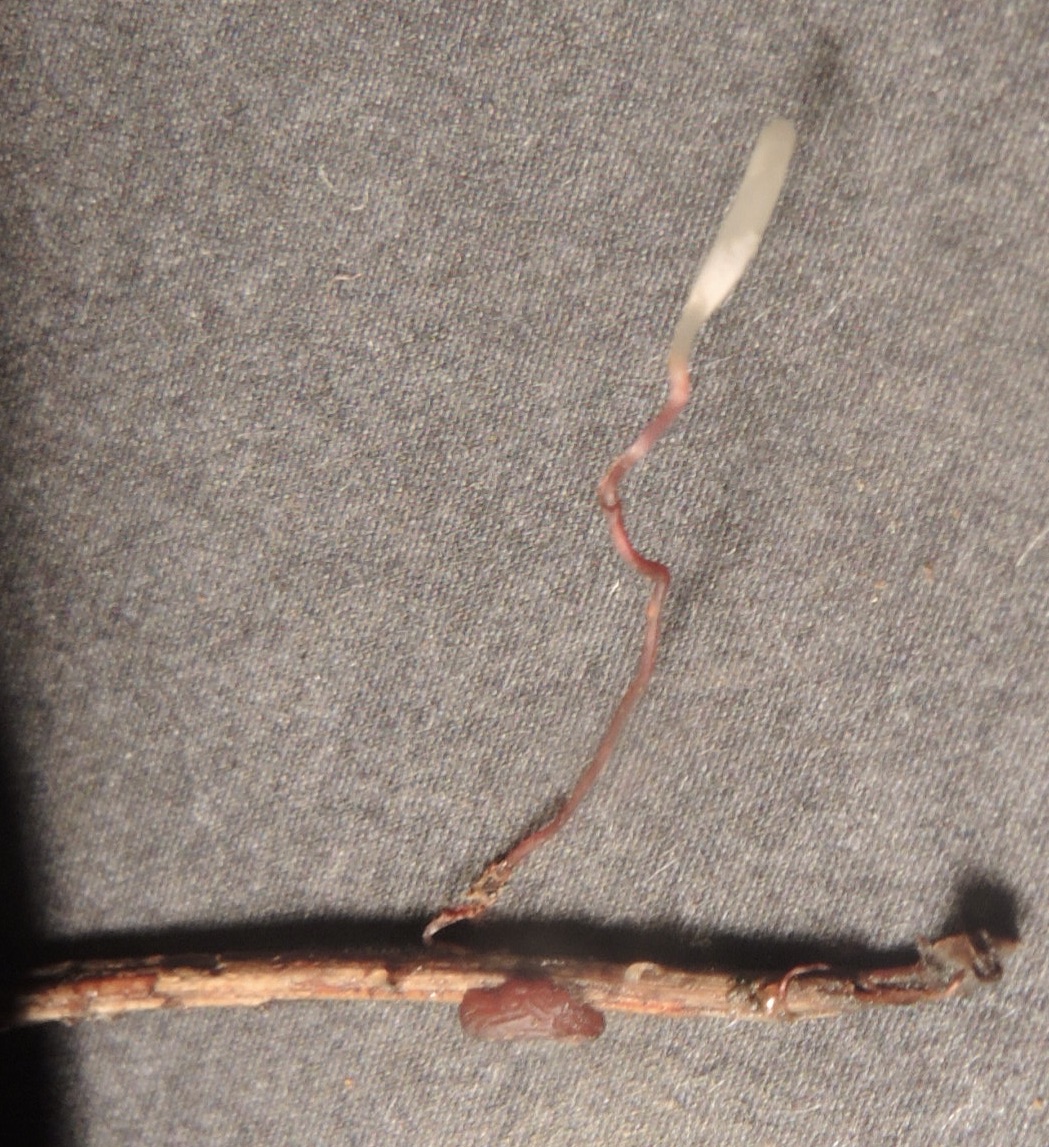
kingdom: Fungi
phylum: Basidiomycota
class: Agaricomycetes
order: Agaricales
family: Typhulaceae
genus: Typhula
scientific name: Typhula erythropus
